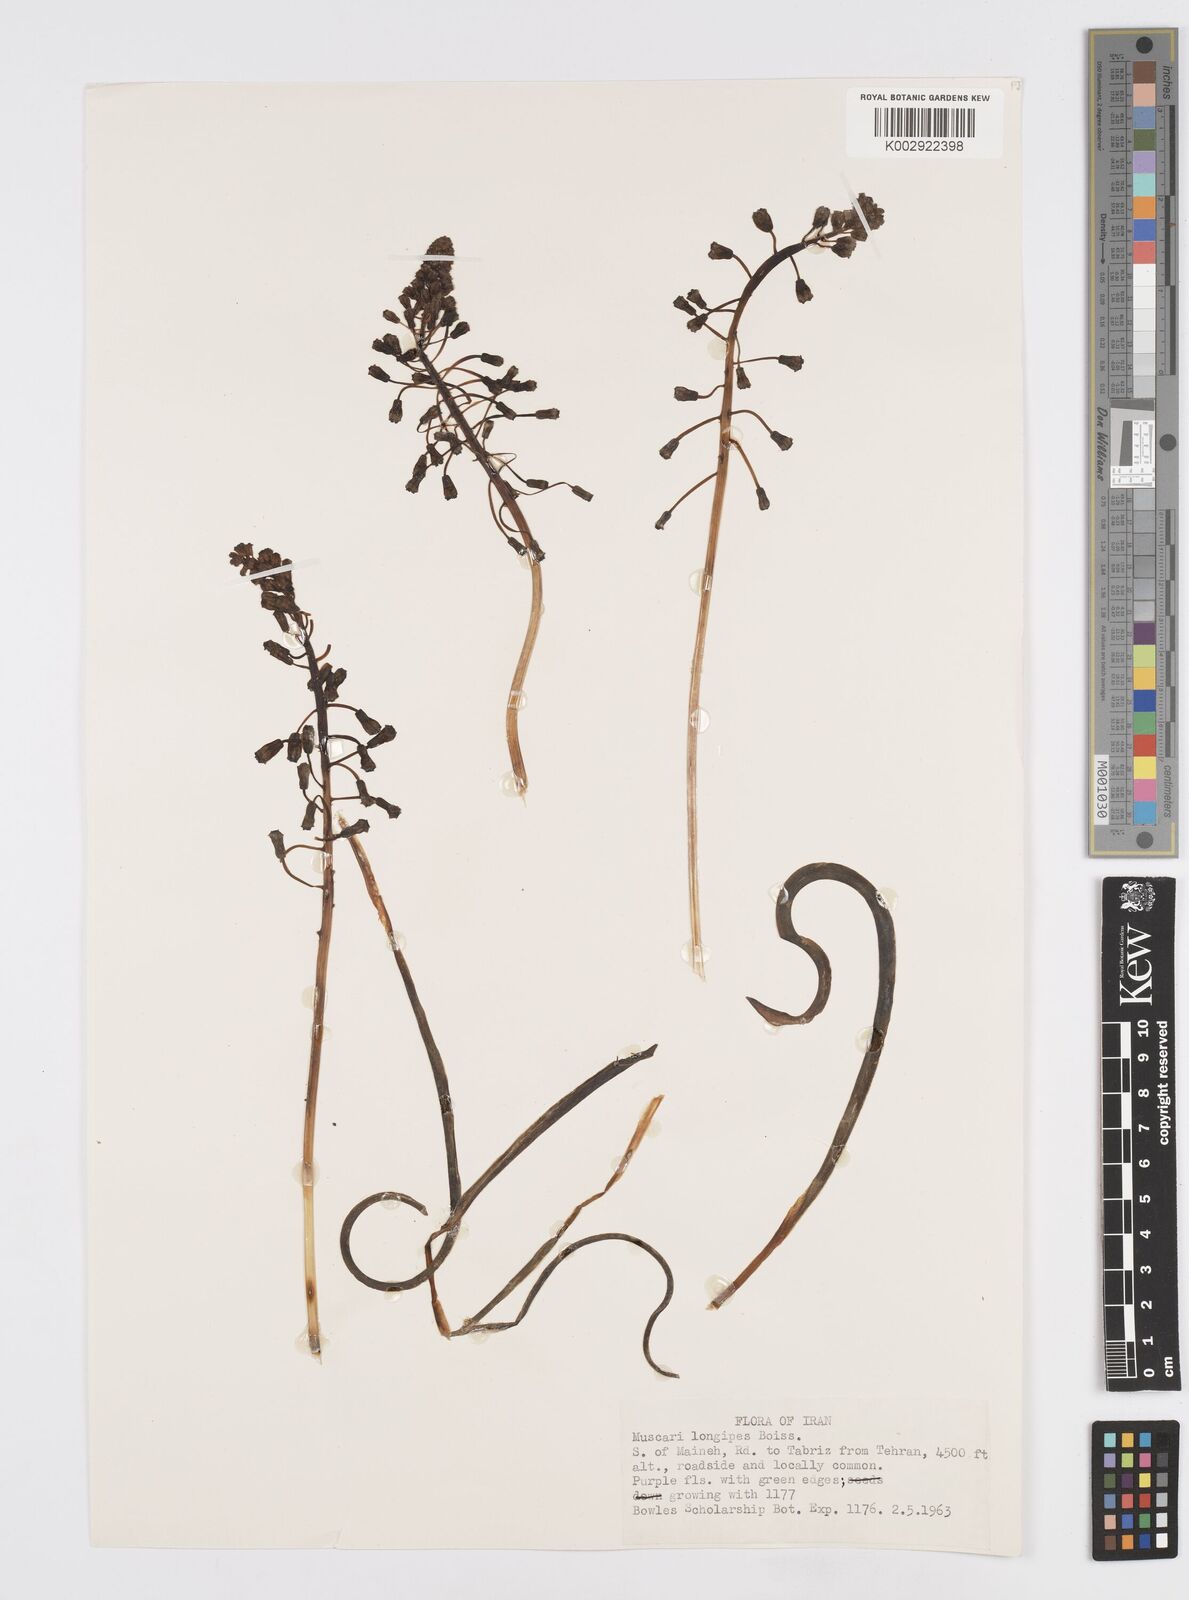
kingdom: Plantae
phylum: Tracheophyta
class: Liliopsida
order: Asparagales
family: Asparagaceae
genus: Muscari
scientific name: Muscari longipes
